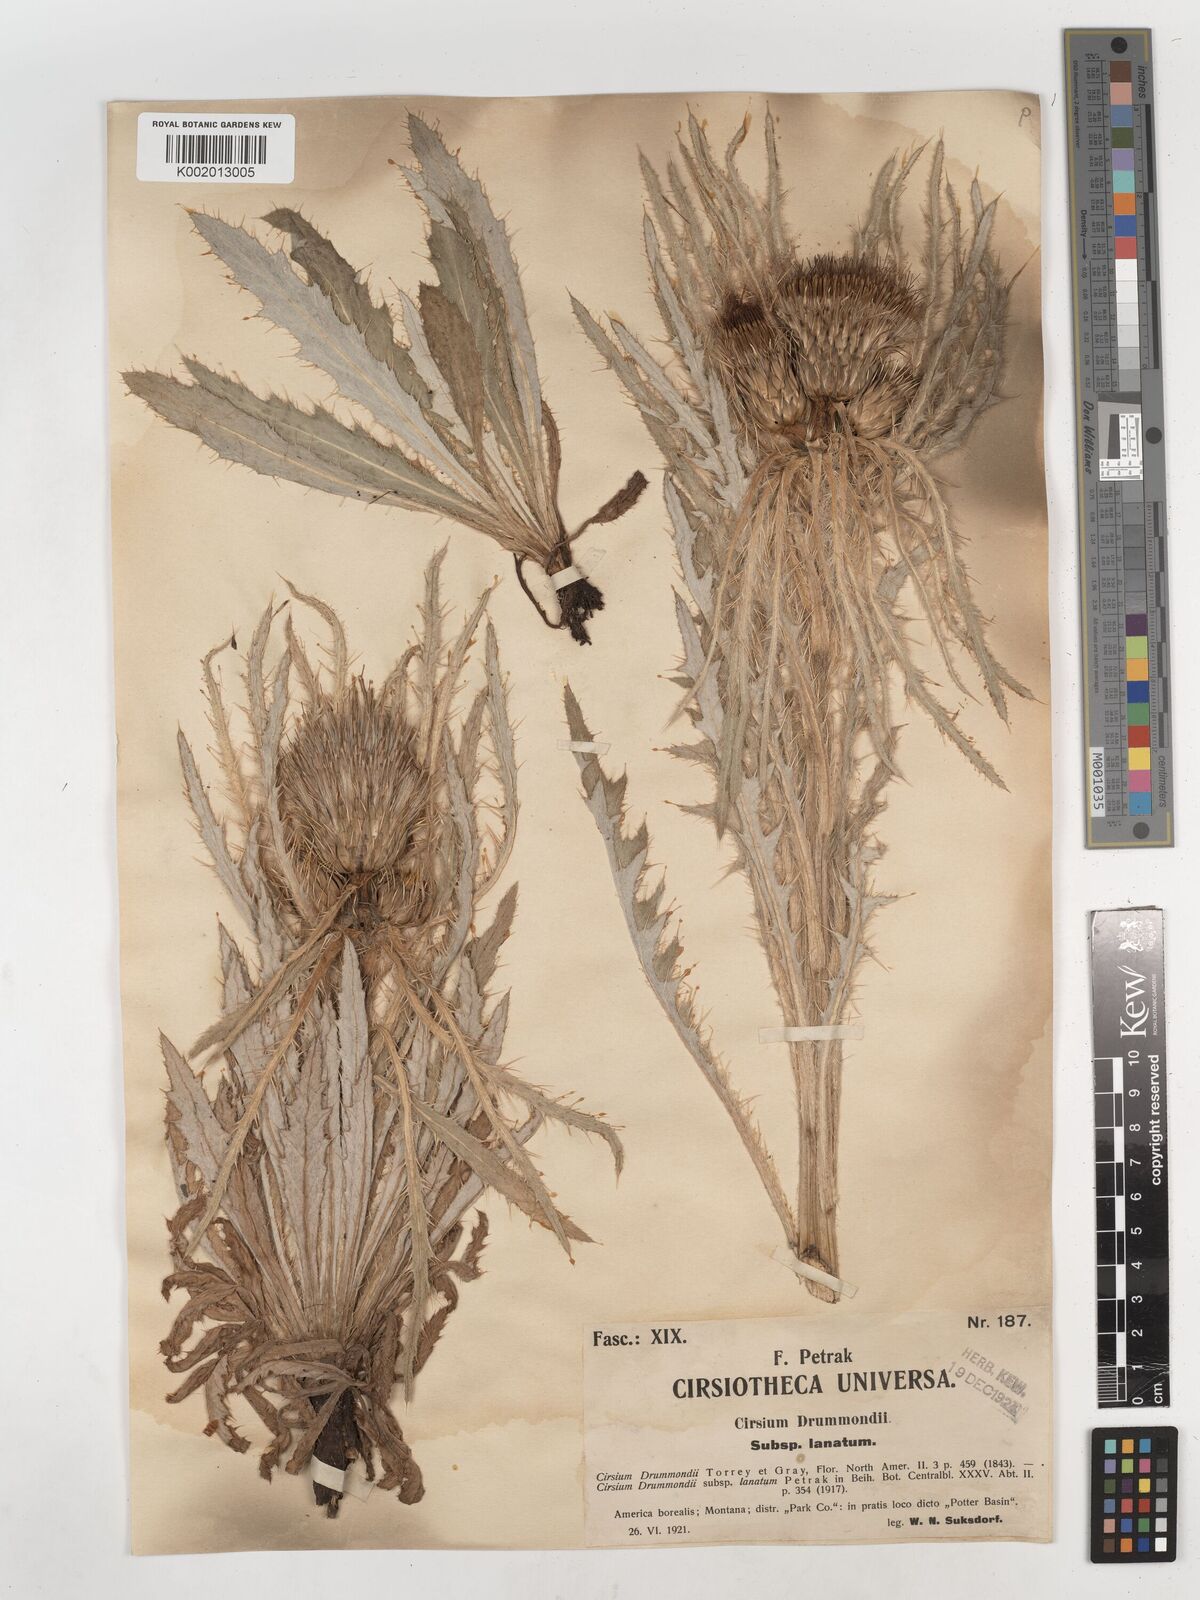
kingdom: Plantae
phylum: Tracheophyta
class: Magnoliopsida
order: Asterales
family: Asteraceae
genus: Cirsium
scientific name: Cirsium drummondii
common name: Drummond's thistle
